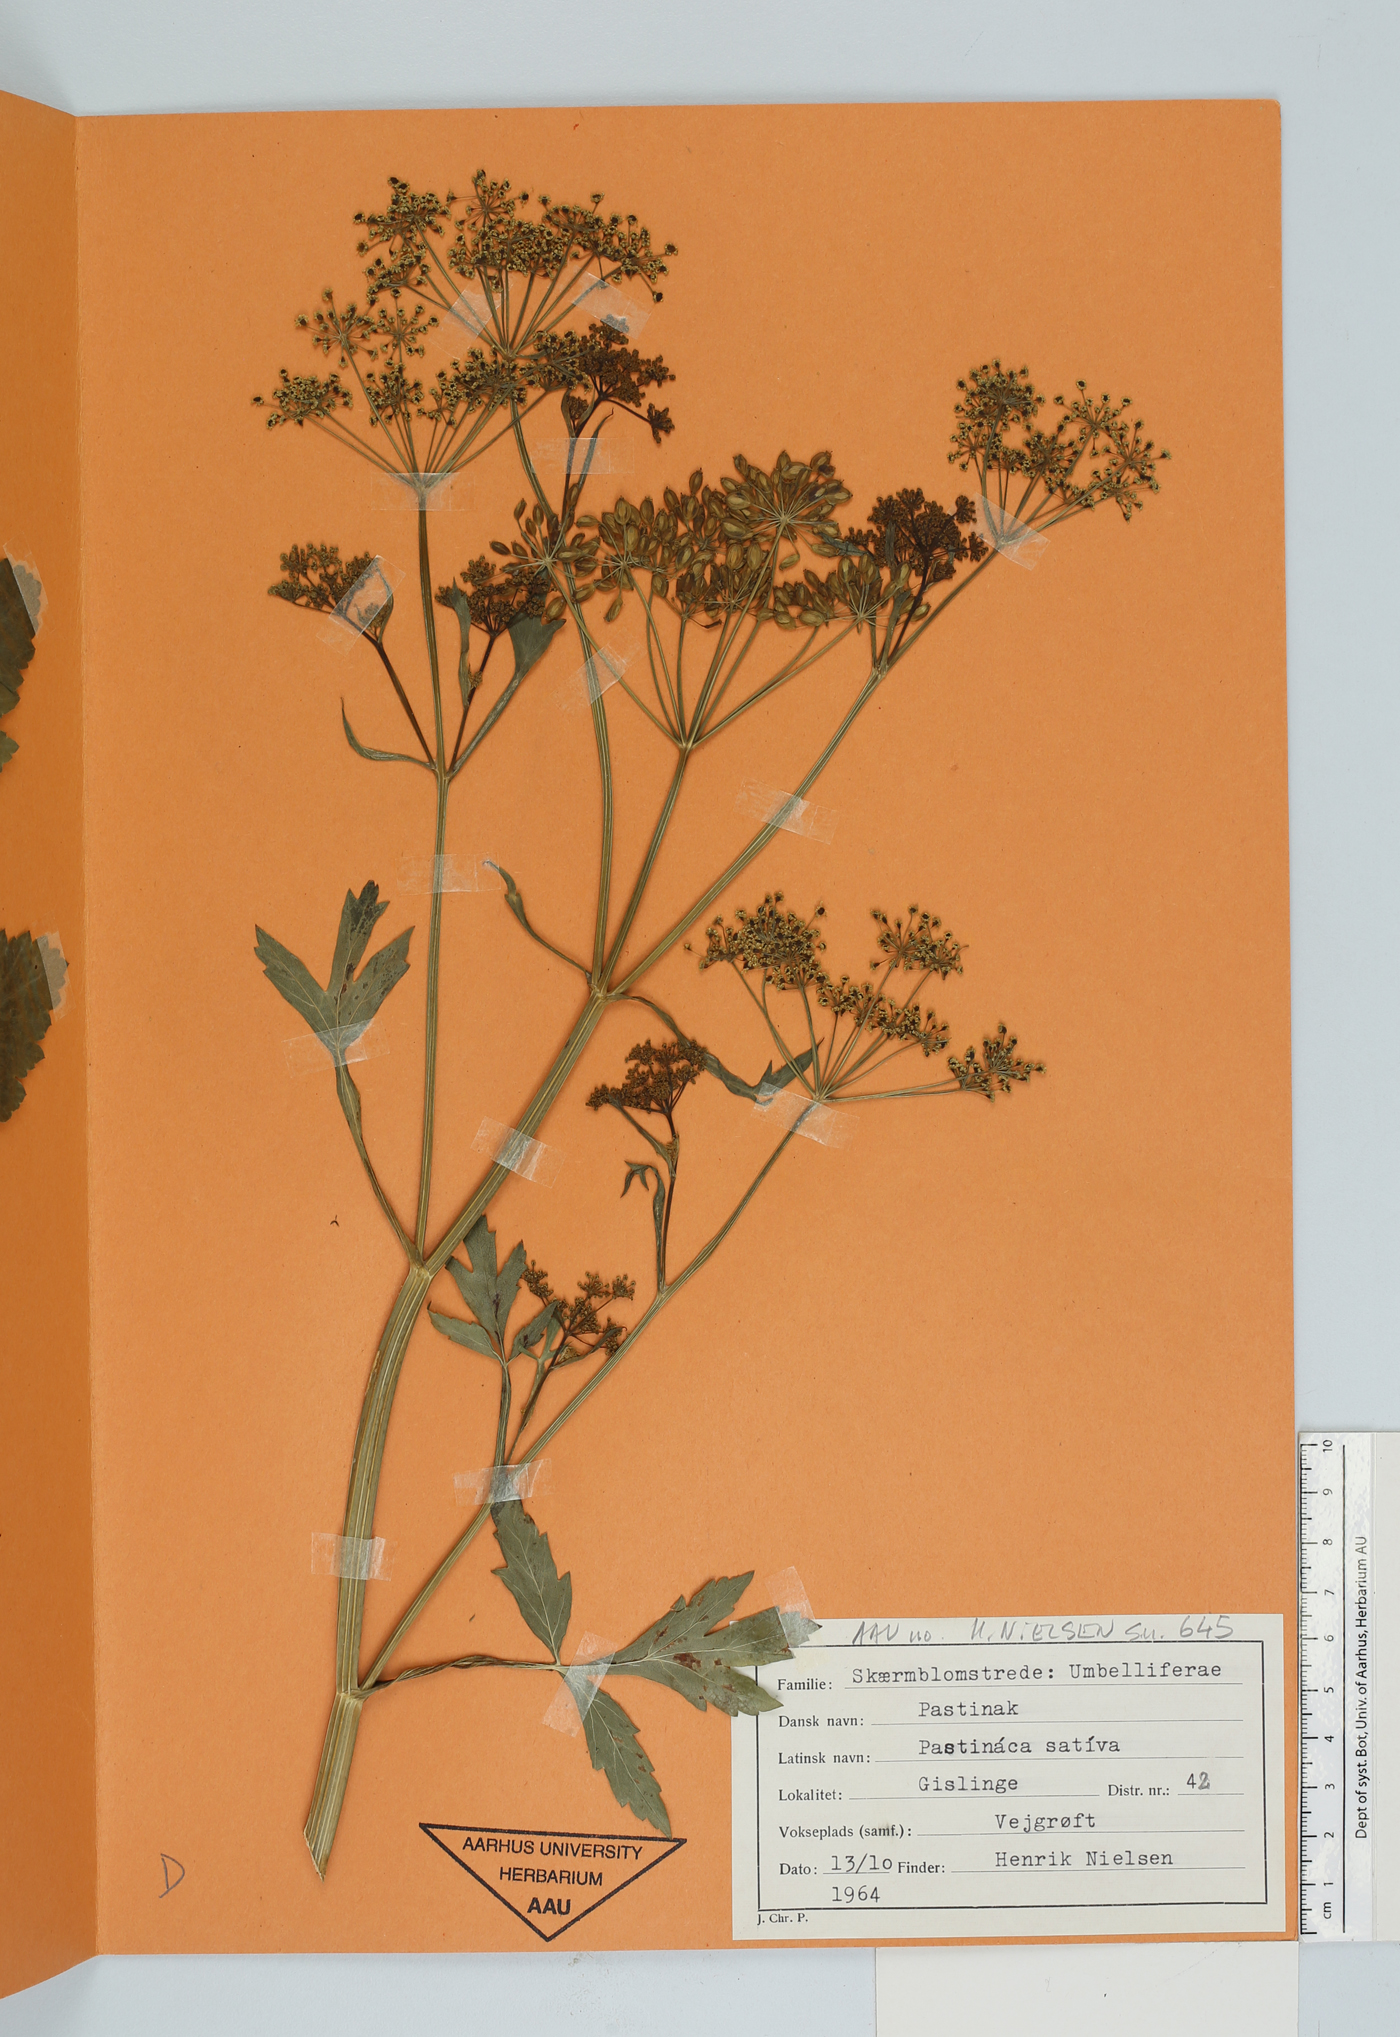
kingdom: Plantae
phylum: Tracheophyta
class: Magnoliopsida
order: Apiales
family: Apiaceae
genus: Pastinaca
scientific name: Pastinaca sativa
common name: Wild parsnip
